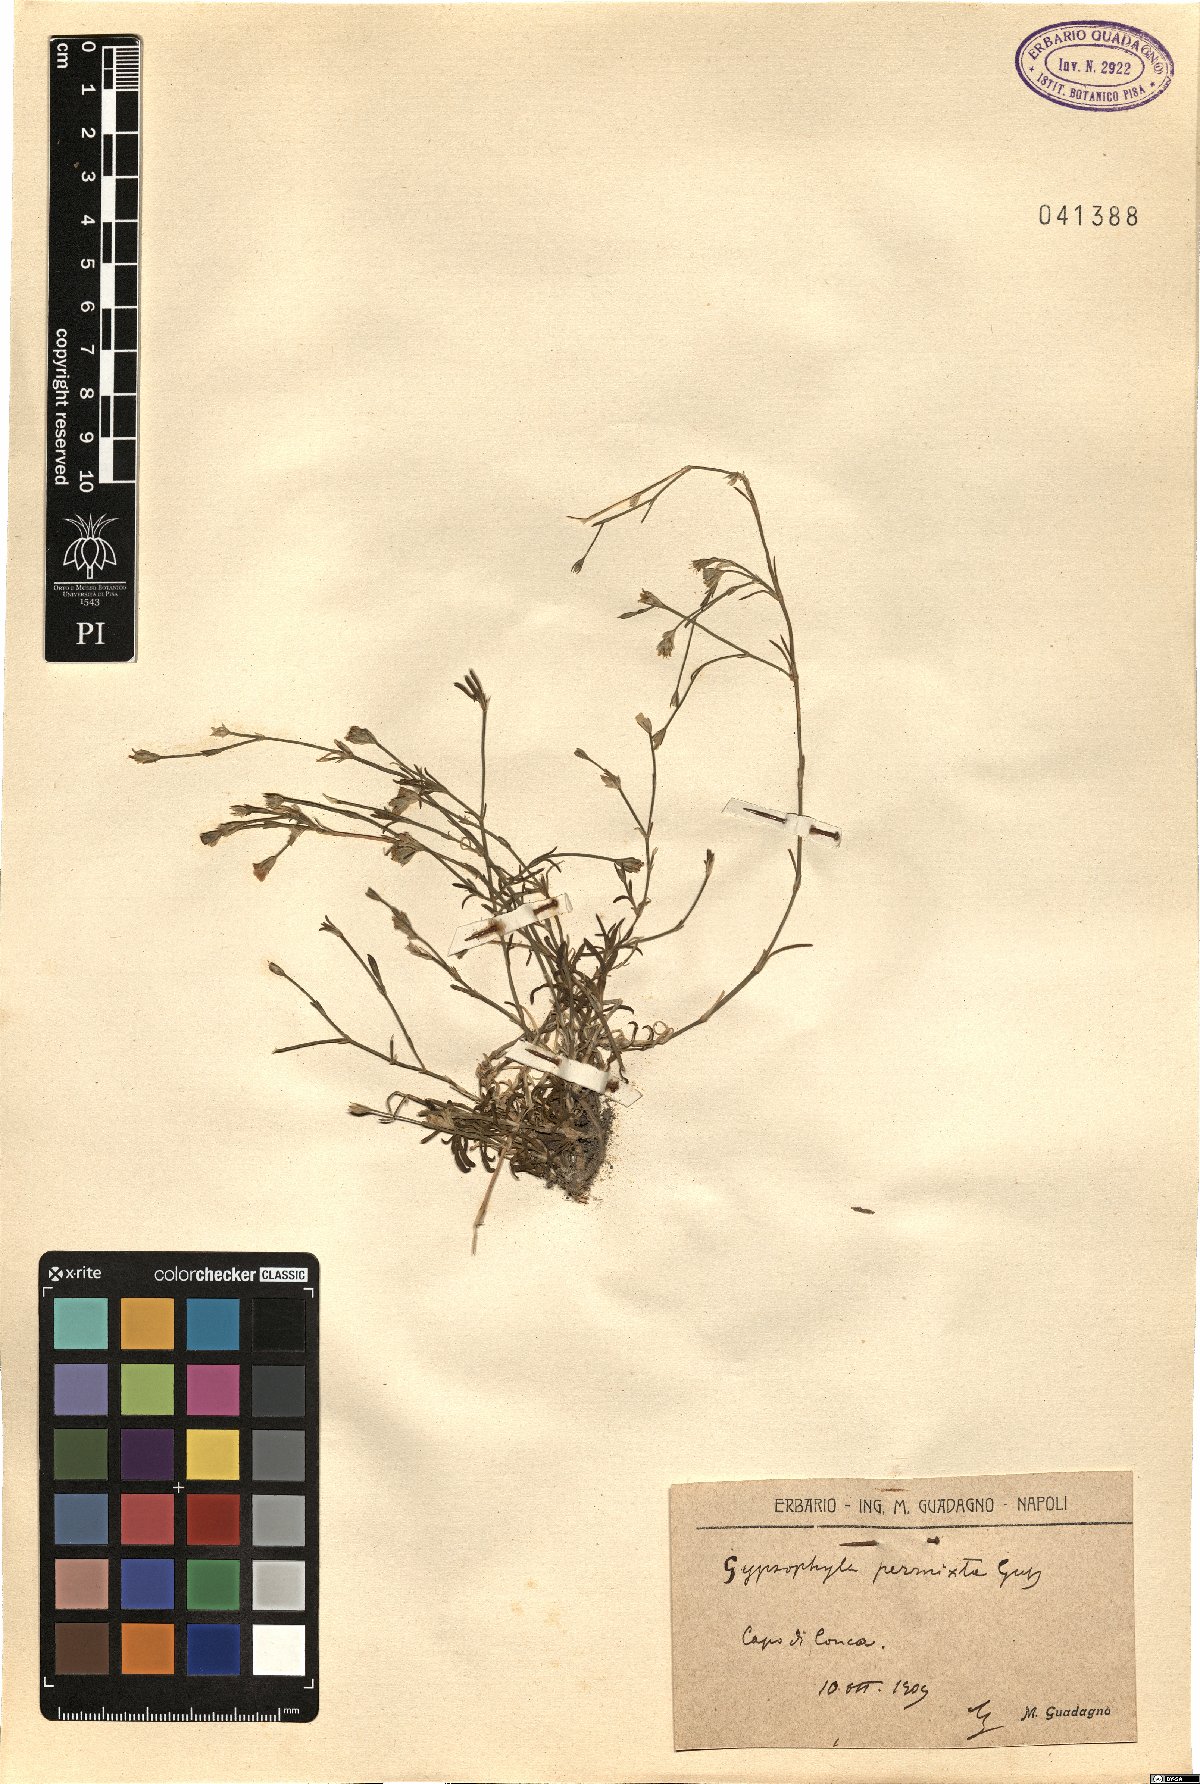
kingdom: Plantae
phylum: Tracheophyta
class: Magnoliopsida
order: Caryophyllales
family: Caryophyllaceae
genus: Petrorhagia
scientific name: Petrorhagia saxifraga
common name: Tunicflower
